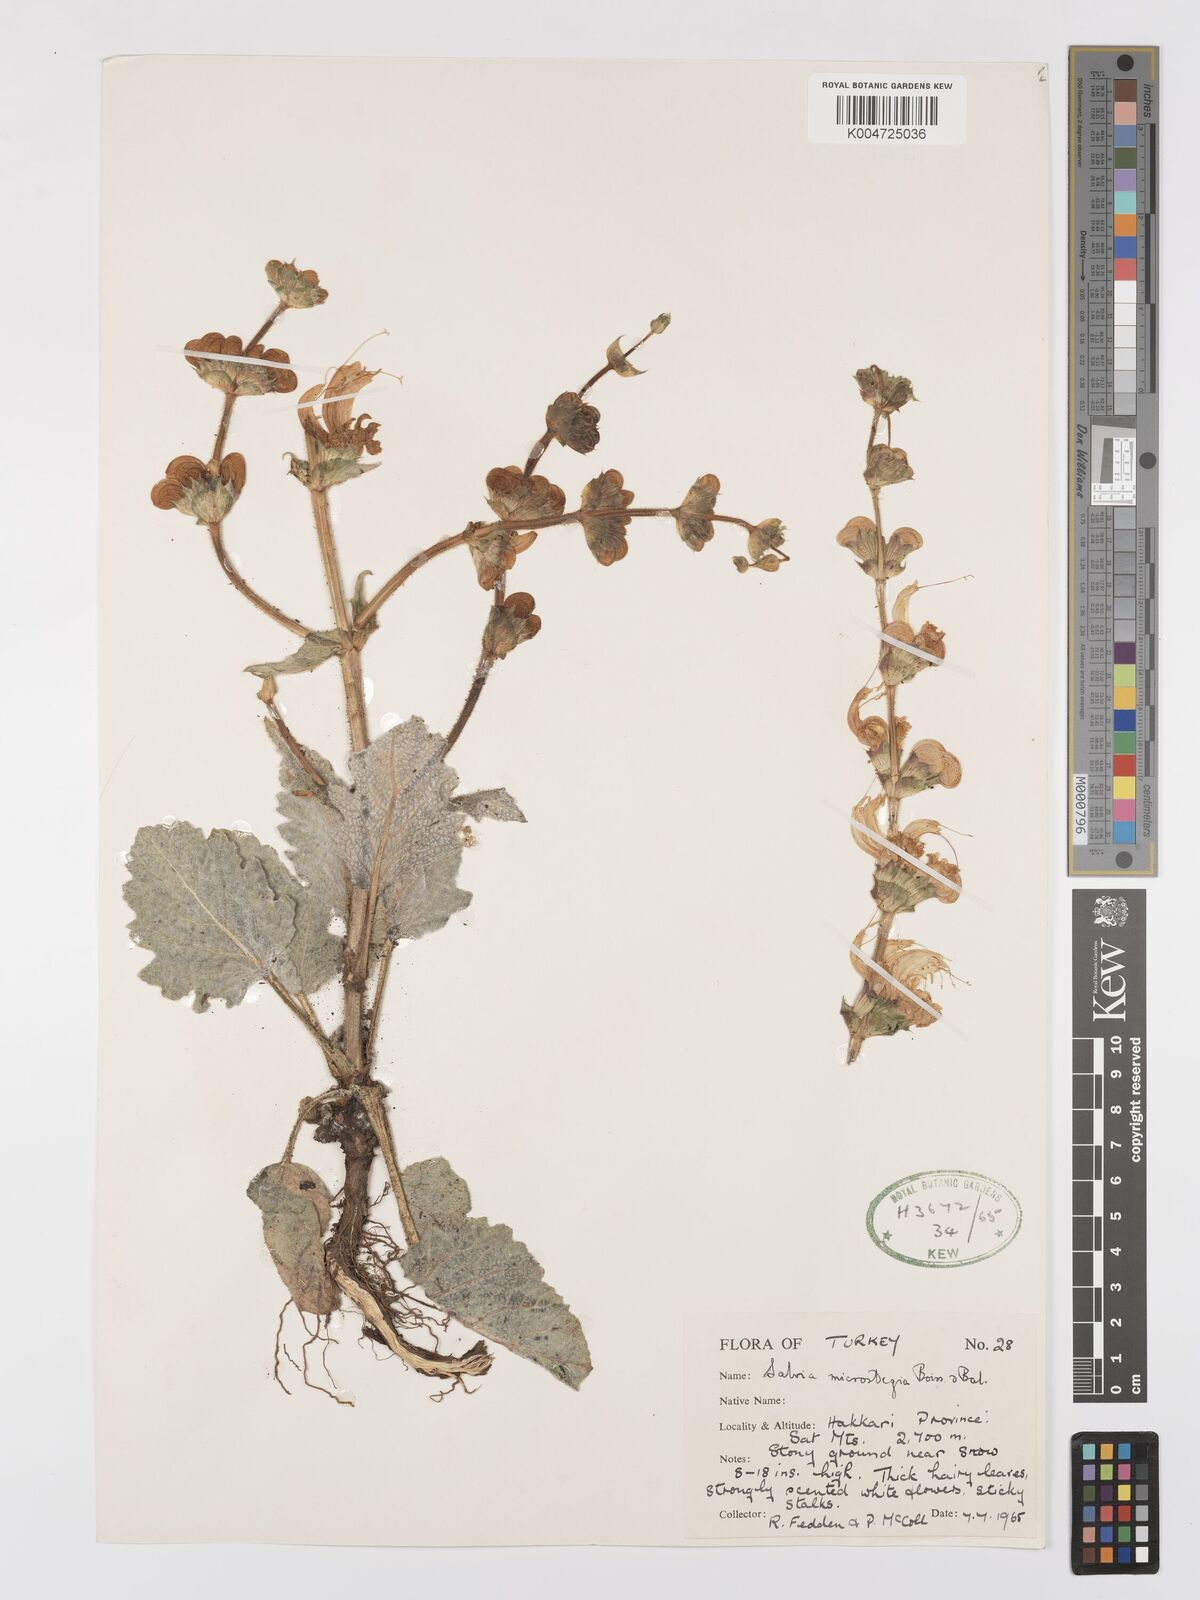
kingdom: Plantae
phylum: Tracheophyta
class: Magnoliopsida
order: Lamiales
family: Lamiaceae
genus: Salvia
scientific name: Salvia microstegia
